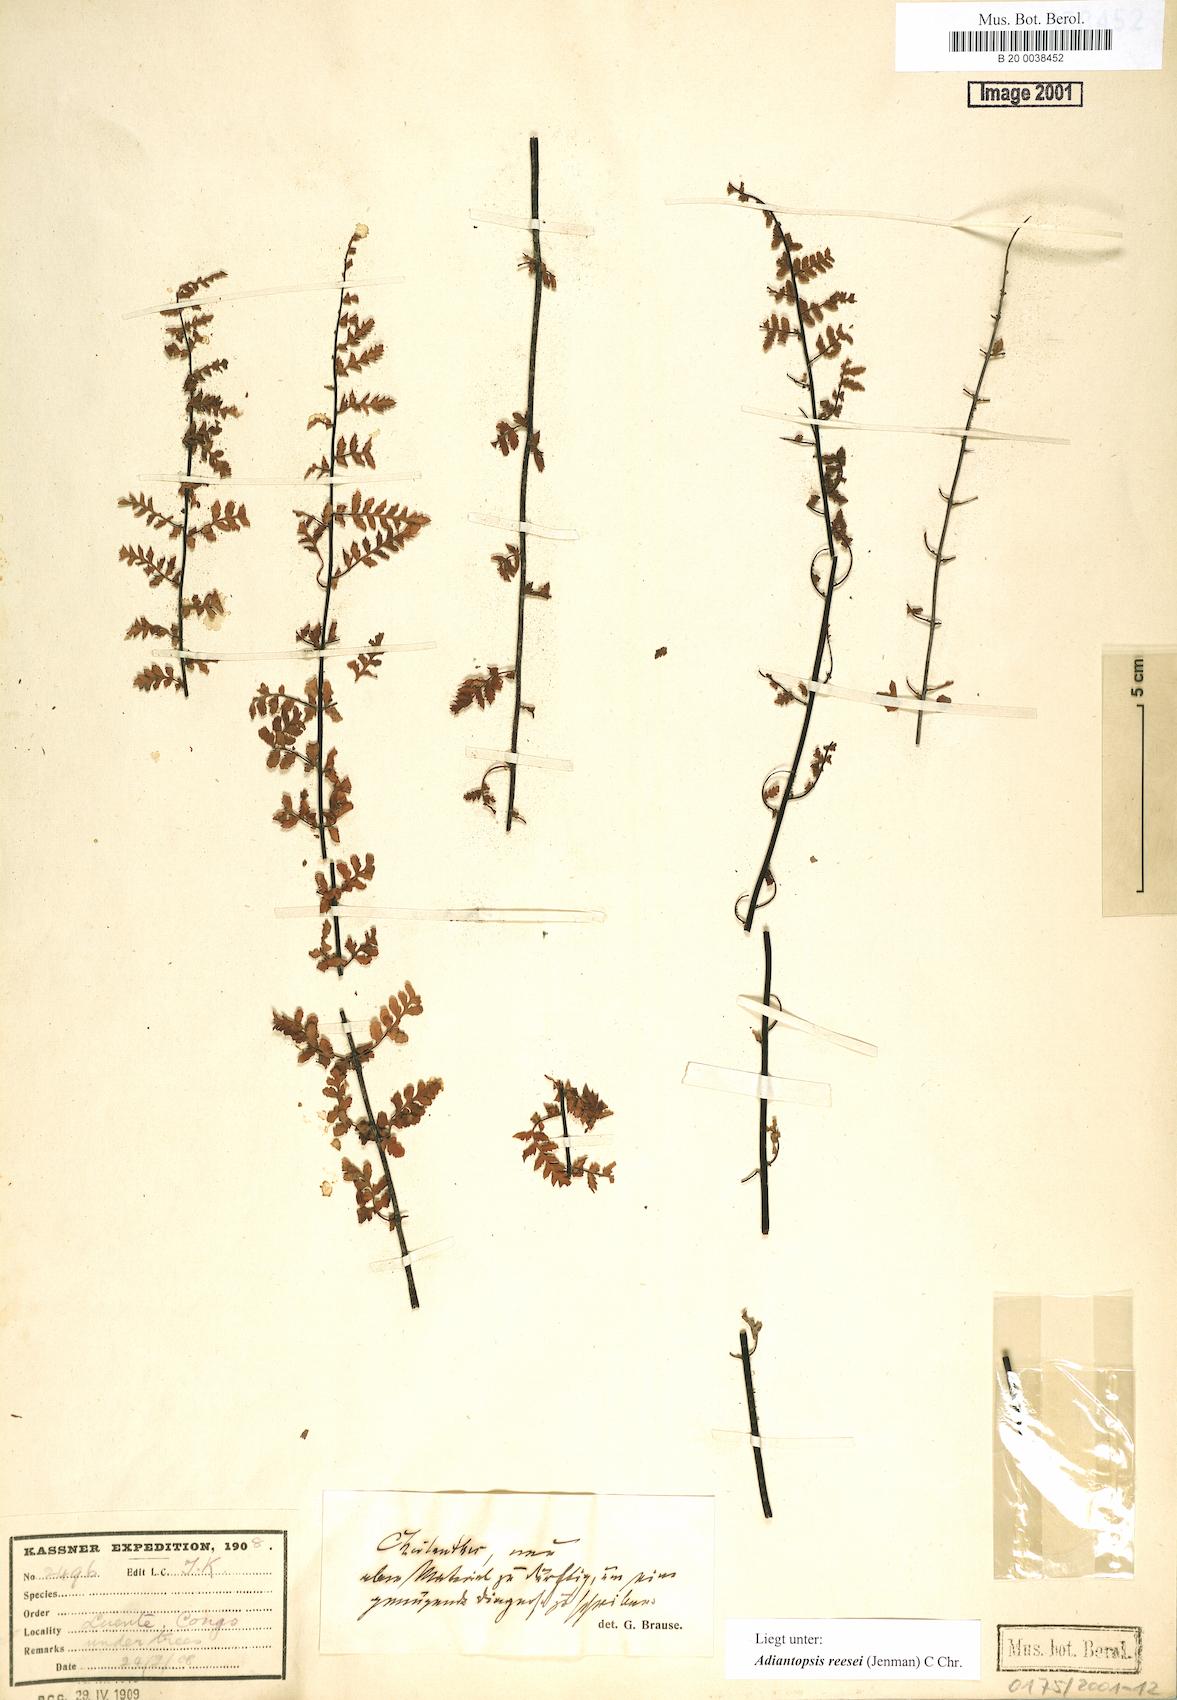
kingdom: Plantae
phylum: Tracheophyta
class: Polypodiopsida
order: Polypodiales
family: Pteridaceae
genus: Adiantopsis
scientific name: Adiantopsis reesii
